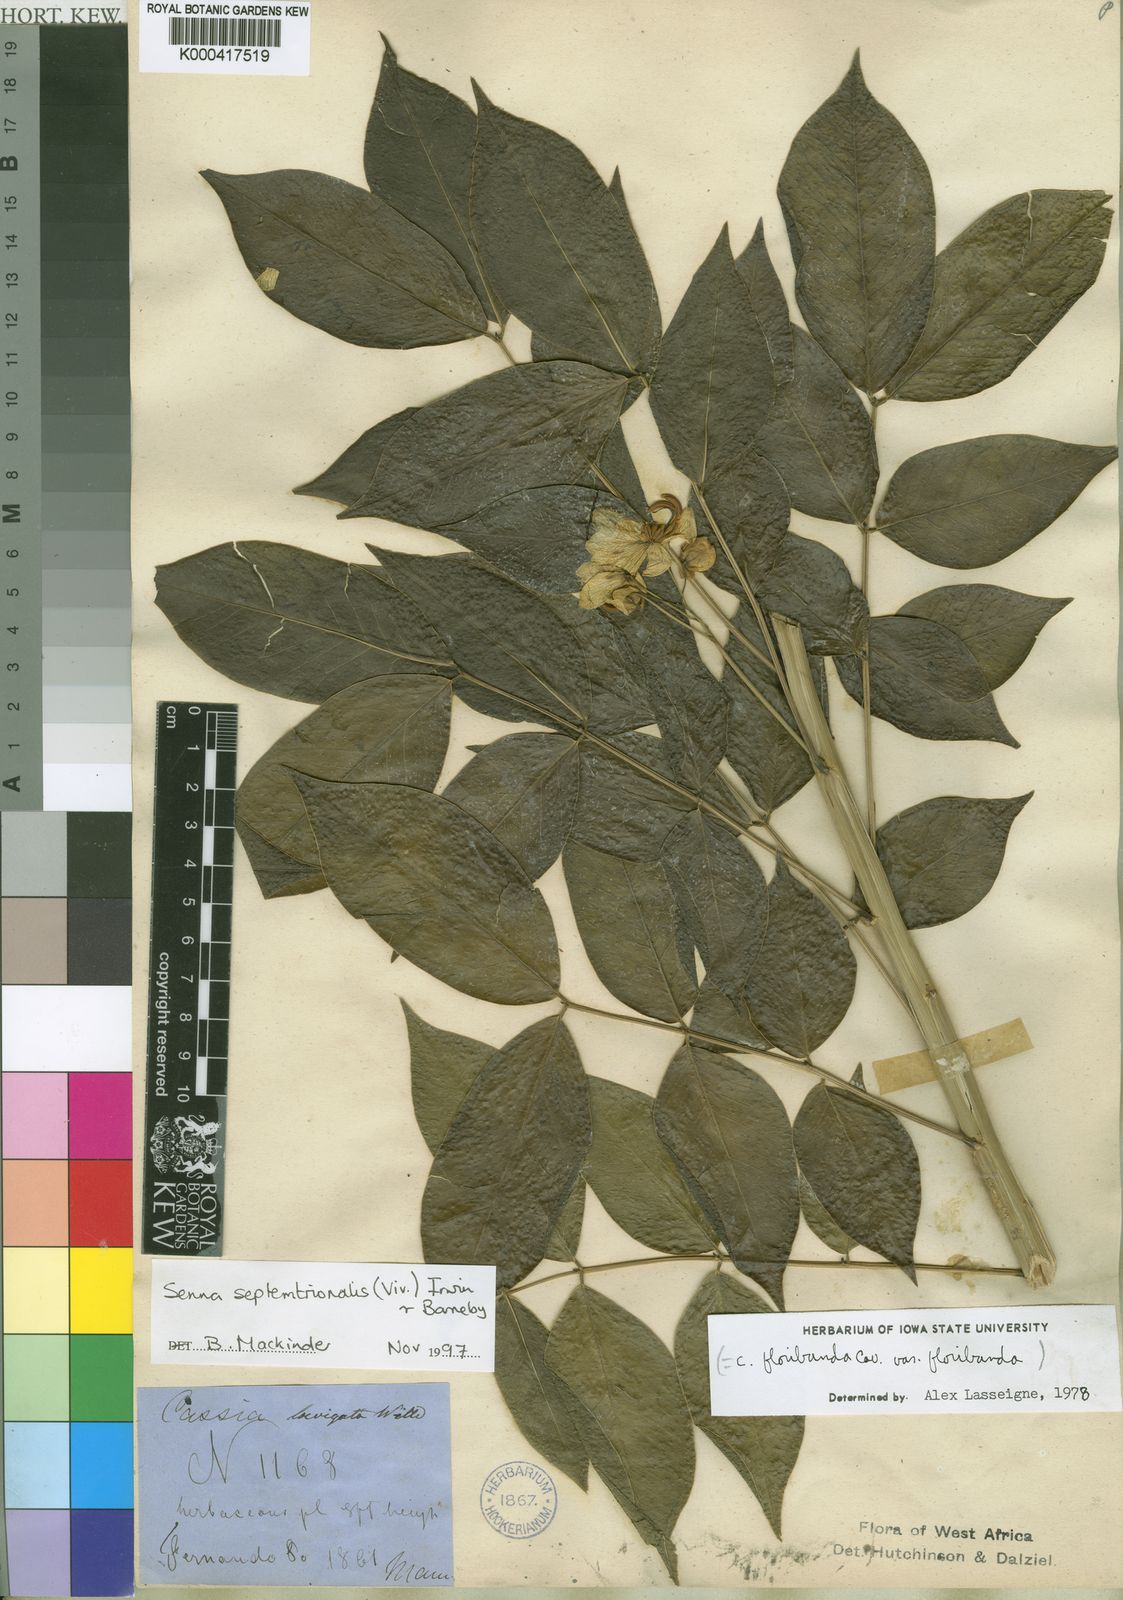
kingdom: Plantae
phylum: Tracheophyta
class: Magnoliopsida
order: Fabales
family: Fabaceae
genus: Senna
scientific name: Senna septemtrionalis
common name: Arsenic bush
